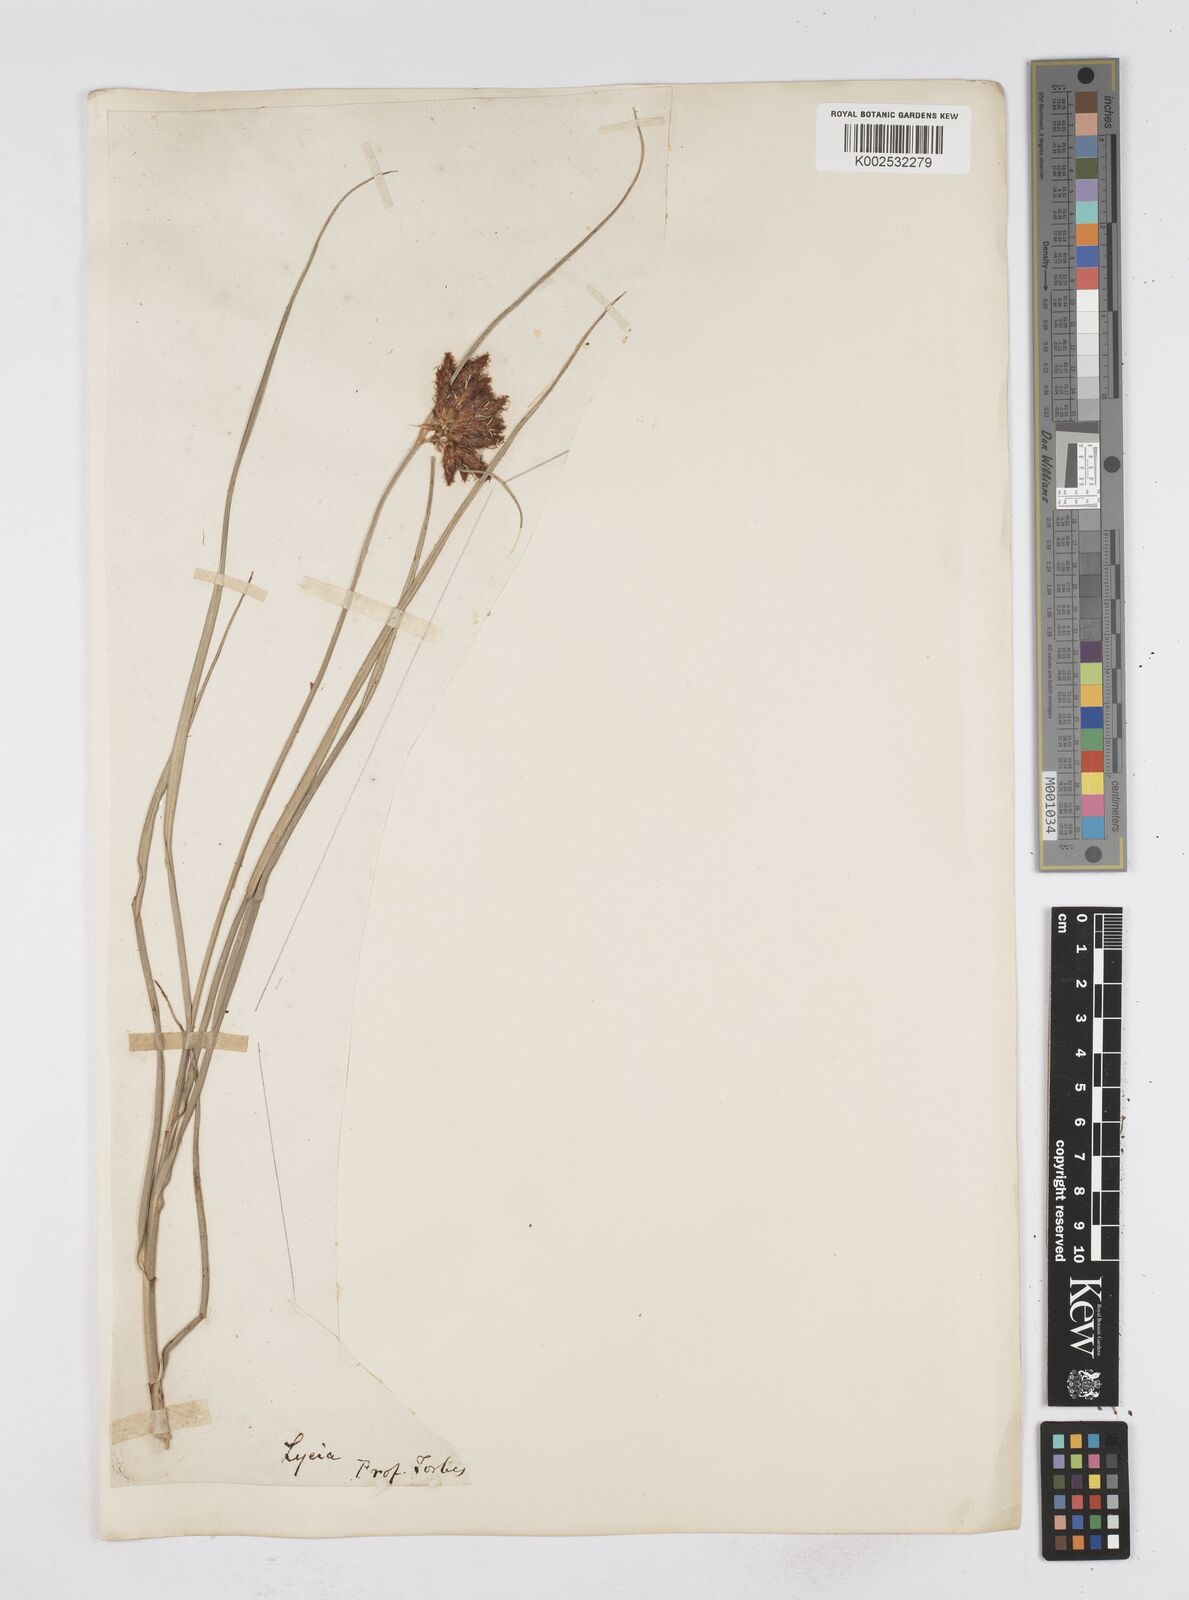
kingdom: Plantae
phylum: Tracheophyta
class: Liliopsida
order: Poales
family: Cyperaceae
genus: Bolboschoenus
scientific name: Bolboschoenus maritimus
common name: Sea club-rush
